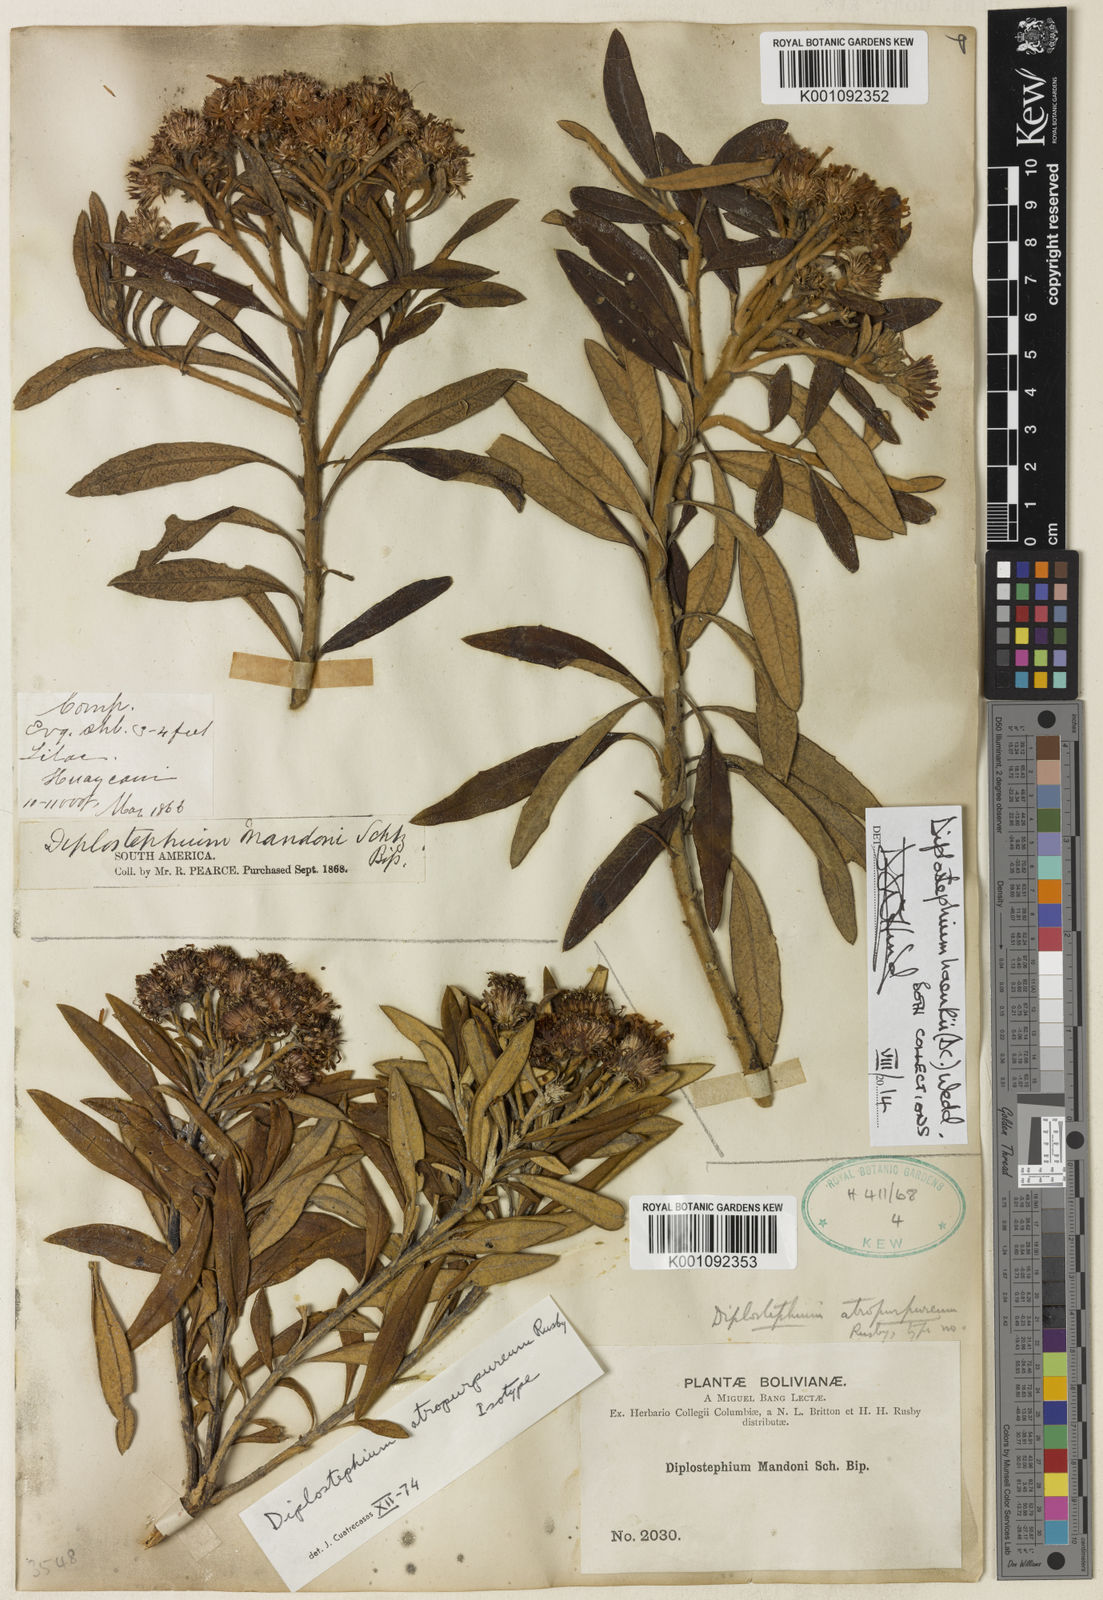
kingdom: Plantae
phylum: Tracheophyta
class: Magnoliopsida
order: Asterales
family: Asteraceae
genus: Diplostephium
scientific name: Diplostephium haenkei
